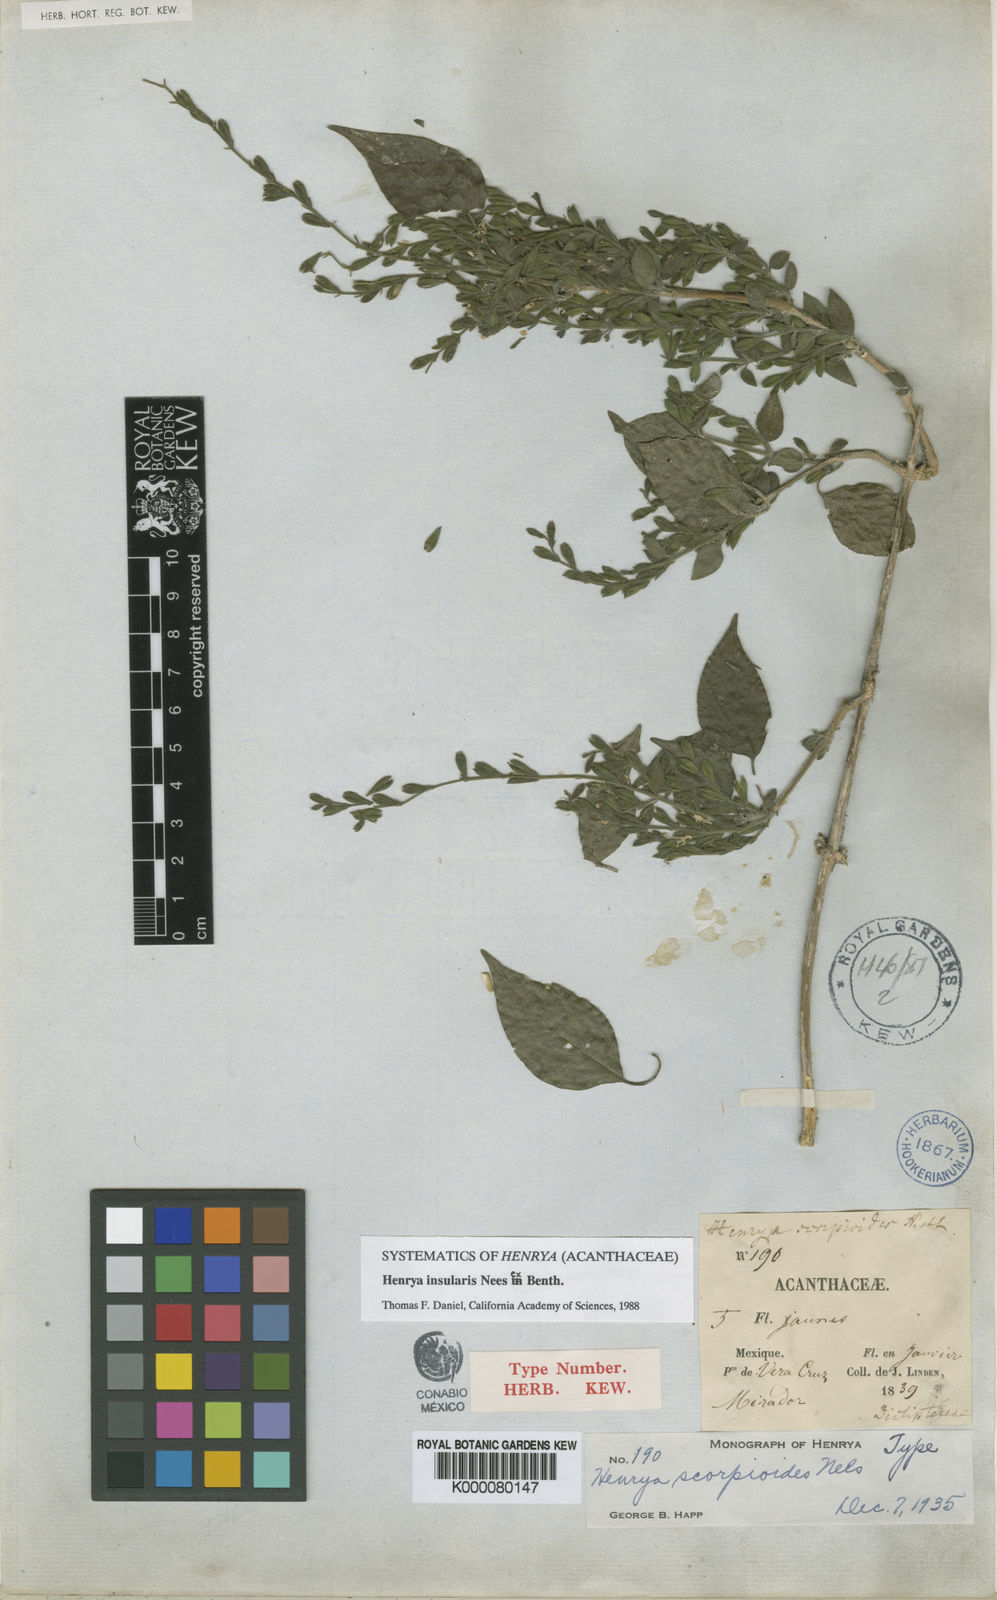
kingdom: Plantae
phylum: Tracheophyta
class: Magnoliopsida
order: Lamiales
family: Acanthaceae
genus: Henrya
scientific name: Henrya
